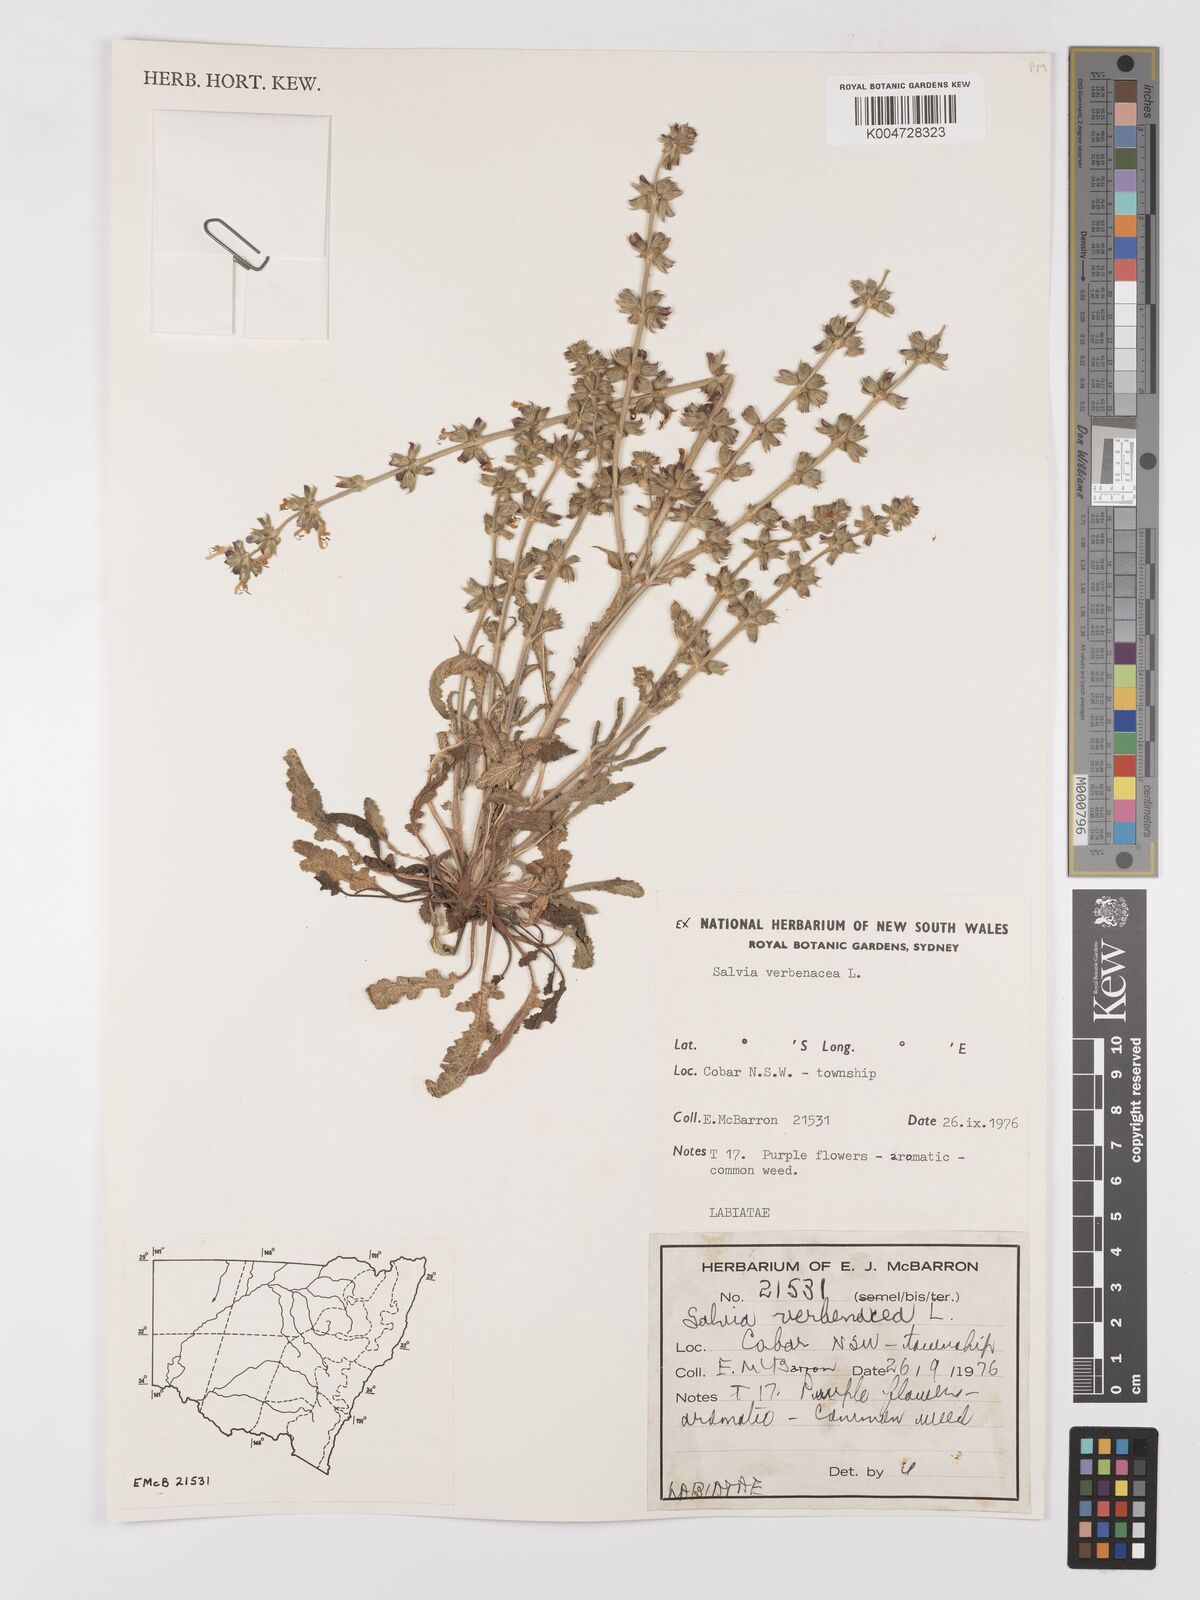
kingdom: Plantae
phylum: Tracheophyta
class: Magnoliopsida
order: Lamiales
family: Lamiaceae
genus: Salvia
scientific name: Salvia verbenaca
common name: Wild clary
